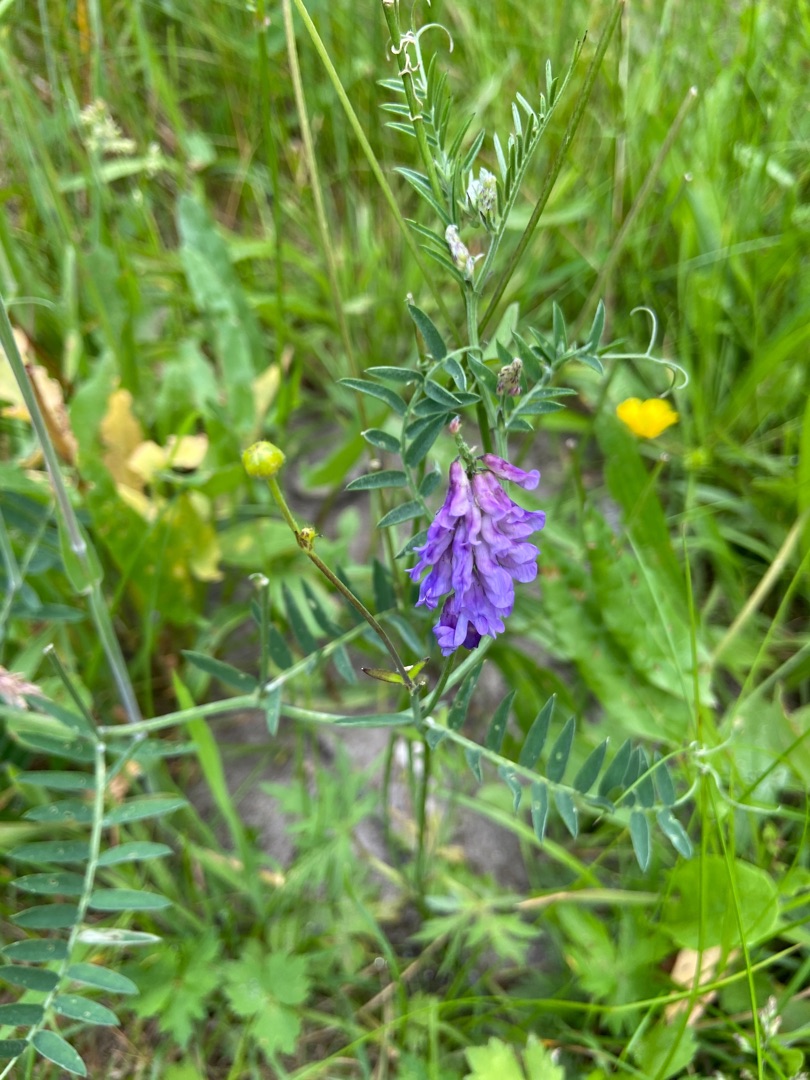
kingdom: Plantae
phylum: Tracheophyta
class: Magnoliopsida
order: Fabales
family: Fabaceae
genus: Vicia
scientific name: Vicia cracca
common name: Muse-vikke
